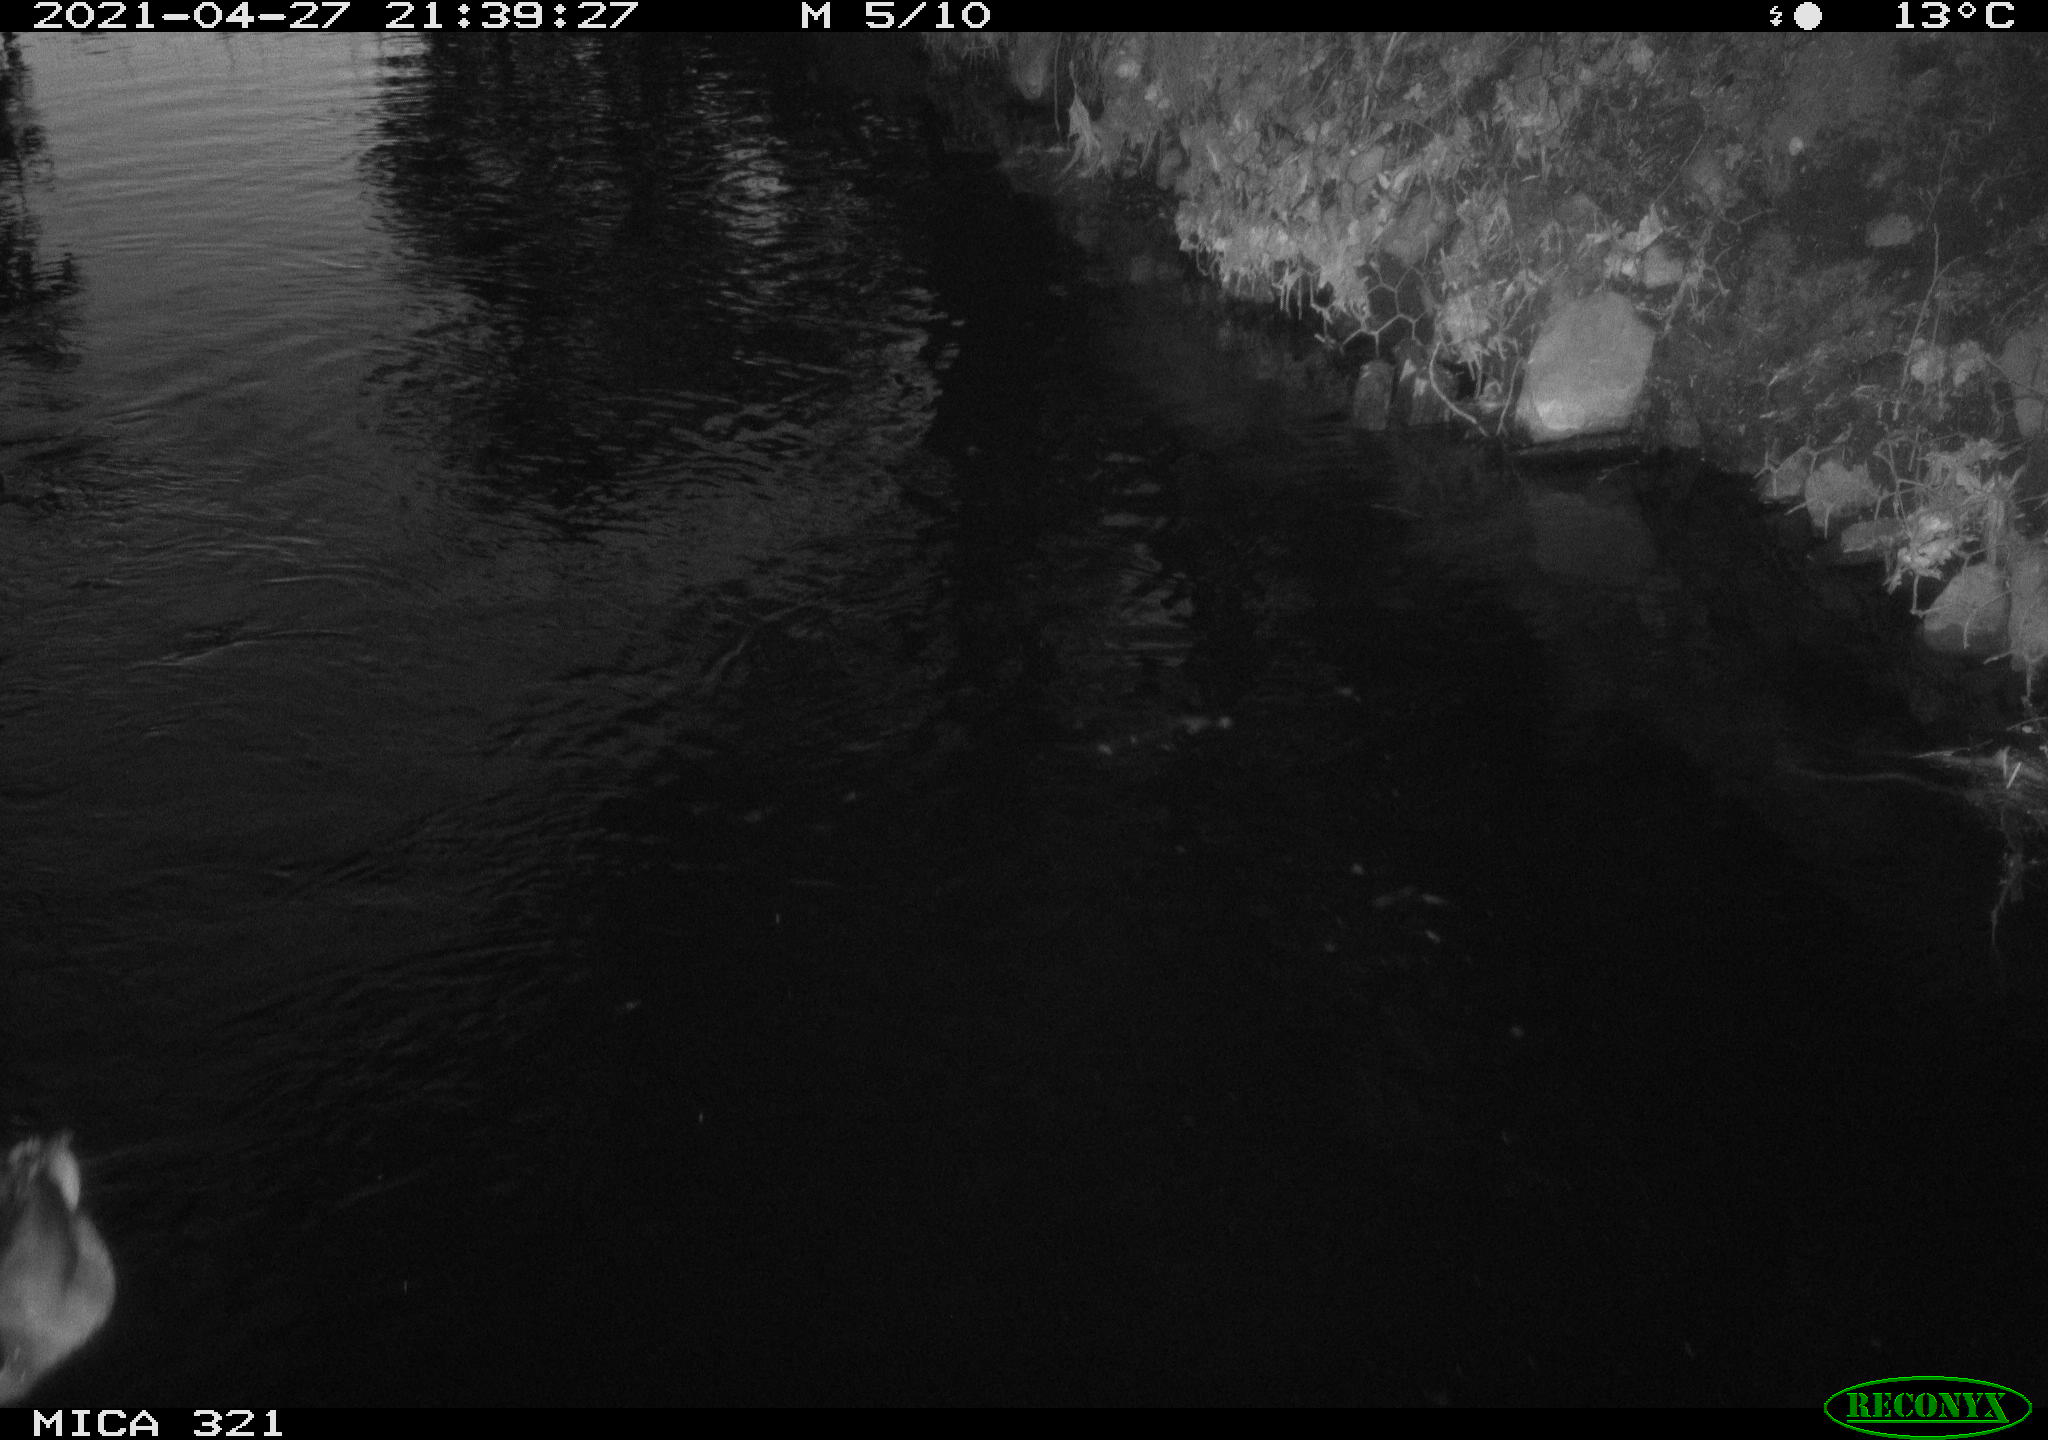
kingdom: Animalia
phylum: Chordata
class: Aves
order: Anseriformes
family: Anatidae
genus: Anas
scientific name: Anas
